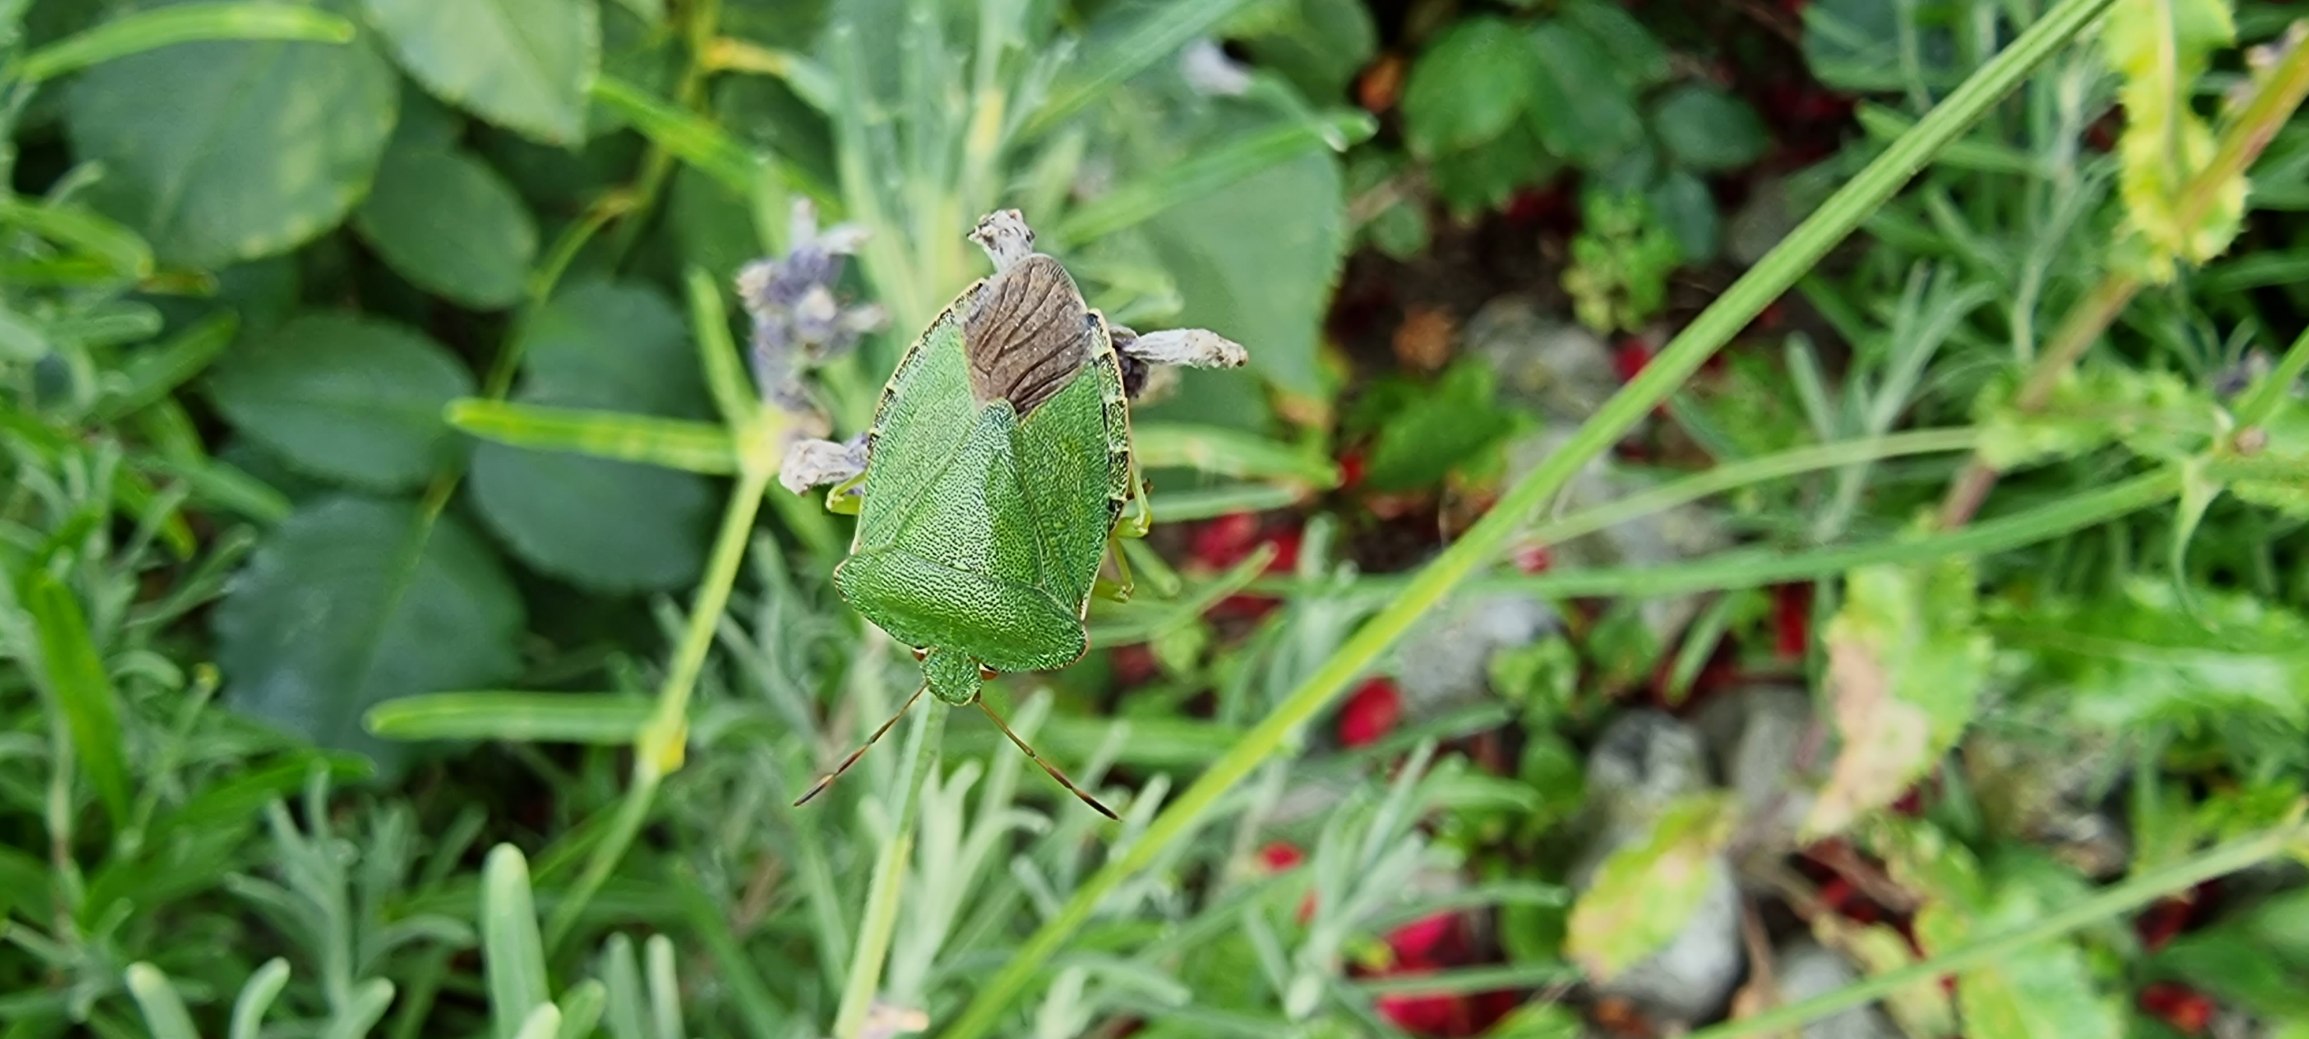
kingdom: Animalia
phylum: Arthropoda
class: Insecta
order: Hemiptera
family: Pentatomidae
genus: Palomena
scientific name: Palomena prasina
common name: Grøn bredtæge
